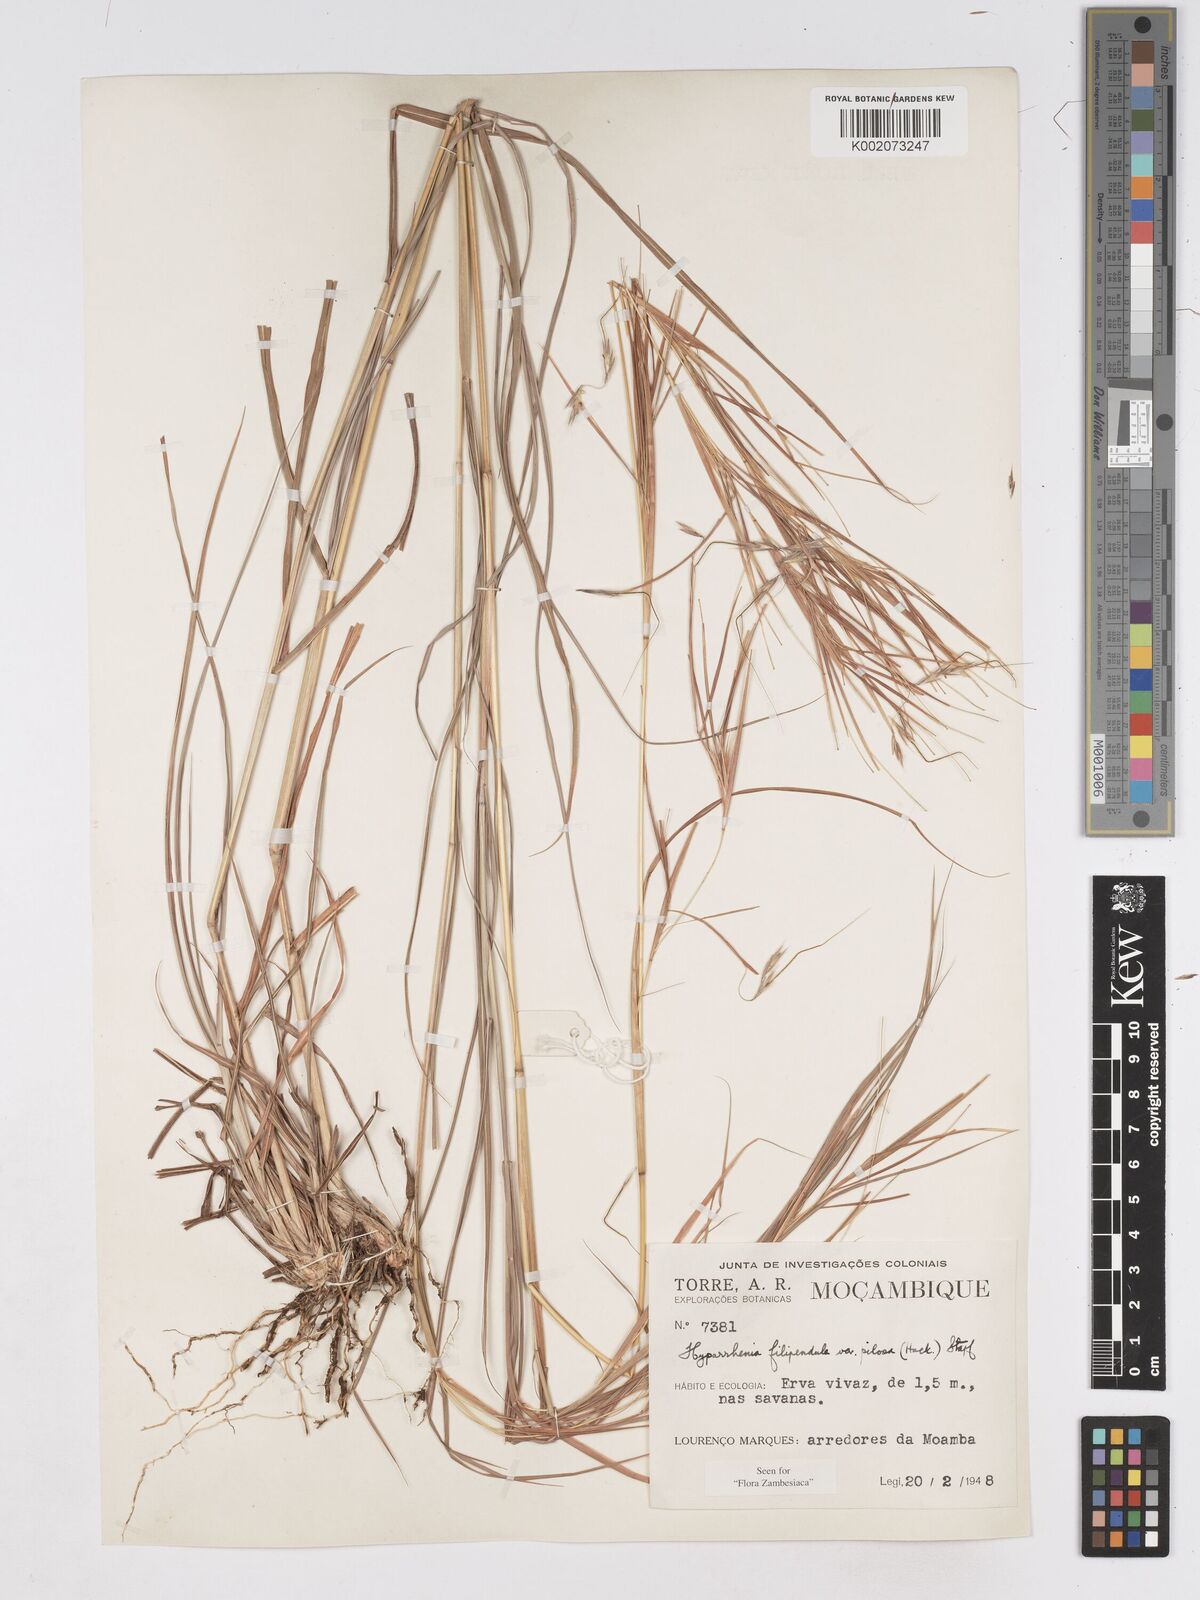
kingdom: Plantae
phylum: Tracheophyta
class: Liliopsida
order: Poales
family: Poaceae
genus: Hyparrhenia
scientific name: Hyparrhenia filipendula
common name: Tambookie grass
